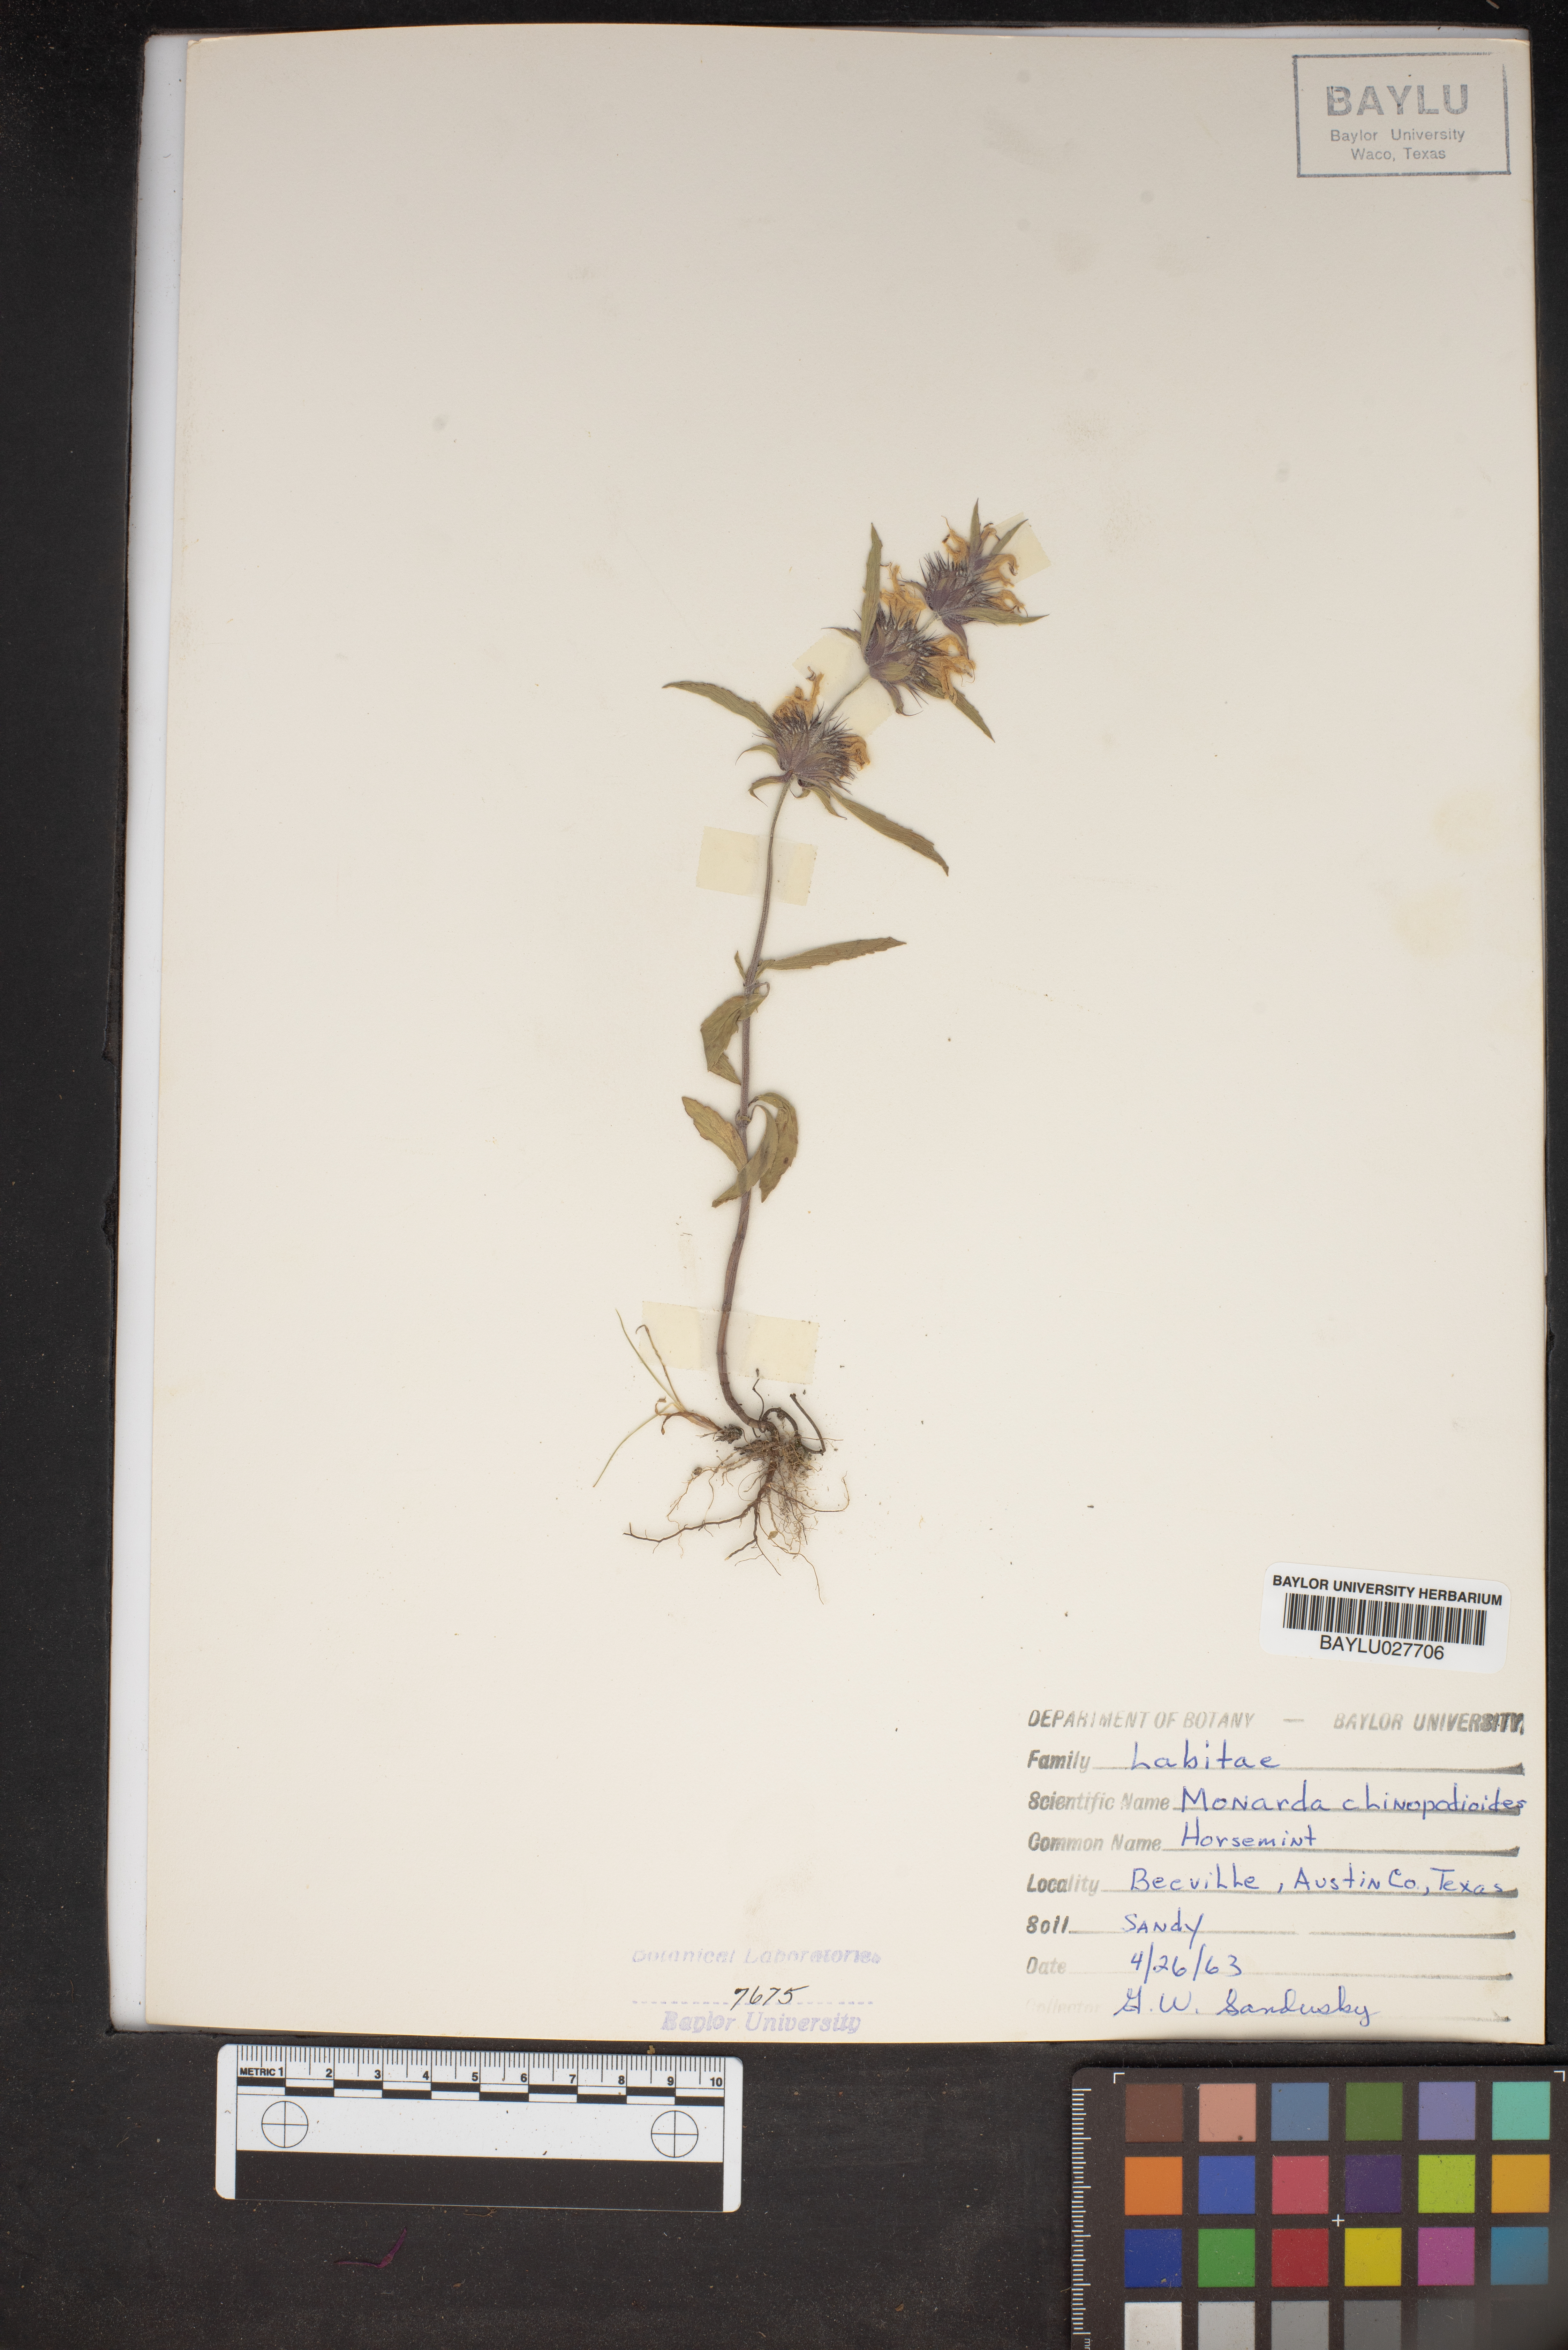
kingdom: Plantae
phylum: Tracheophyta
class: Magnoliopsida
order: Lamiales
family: Lamiaceae
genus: Monarda
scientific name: Monarda clinopodioides
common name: Basil beebalm
